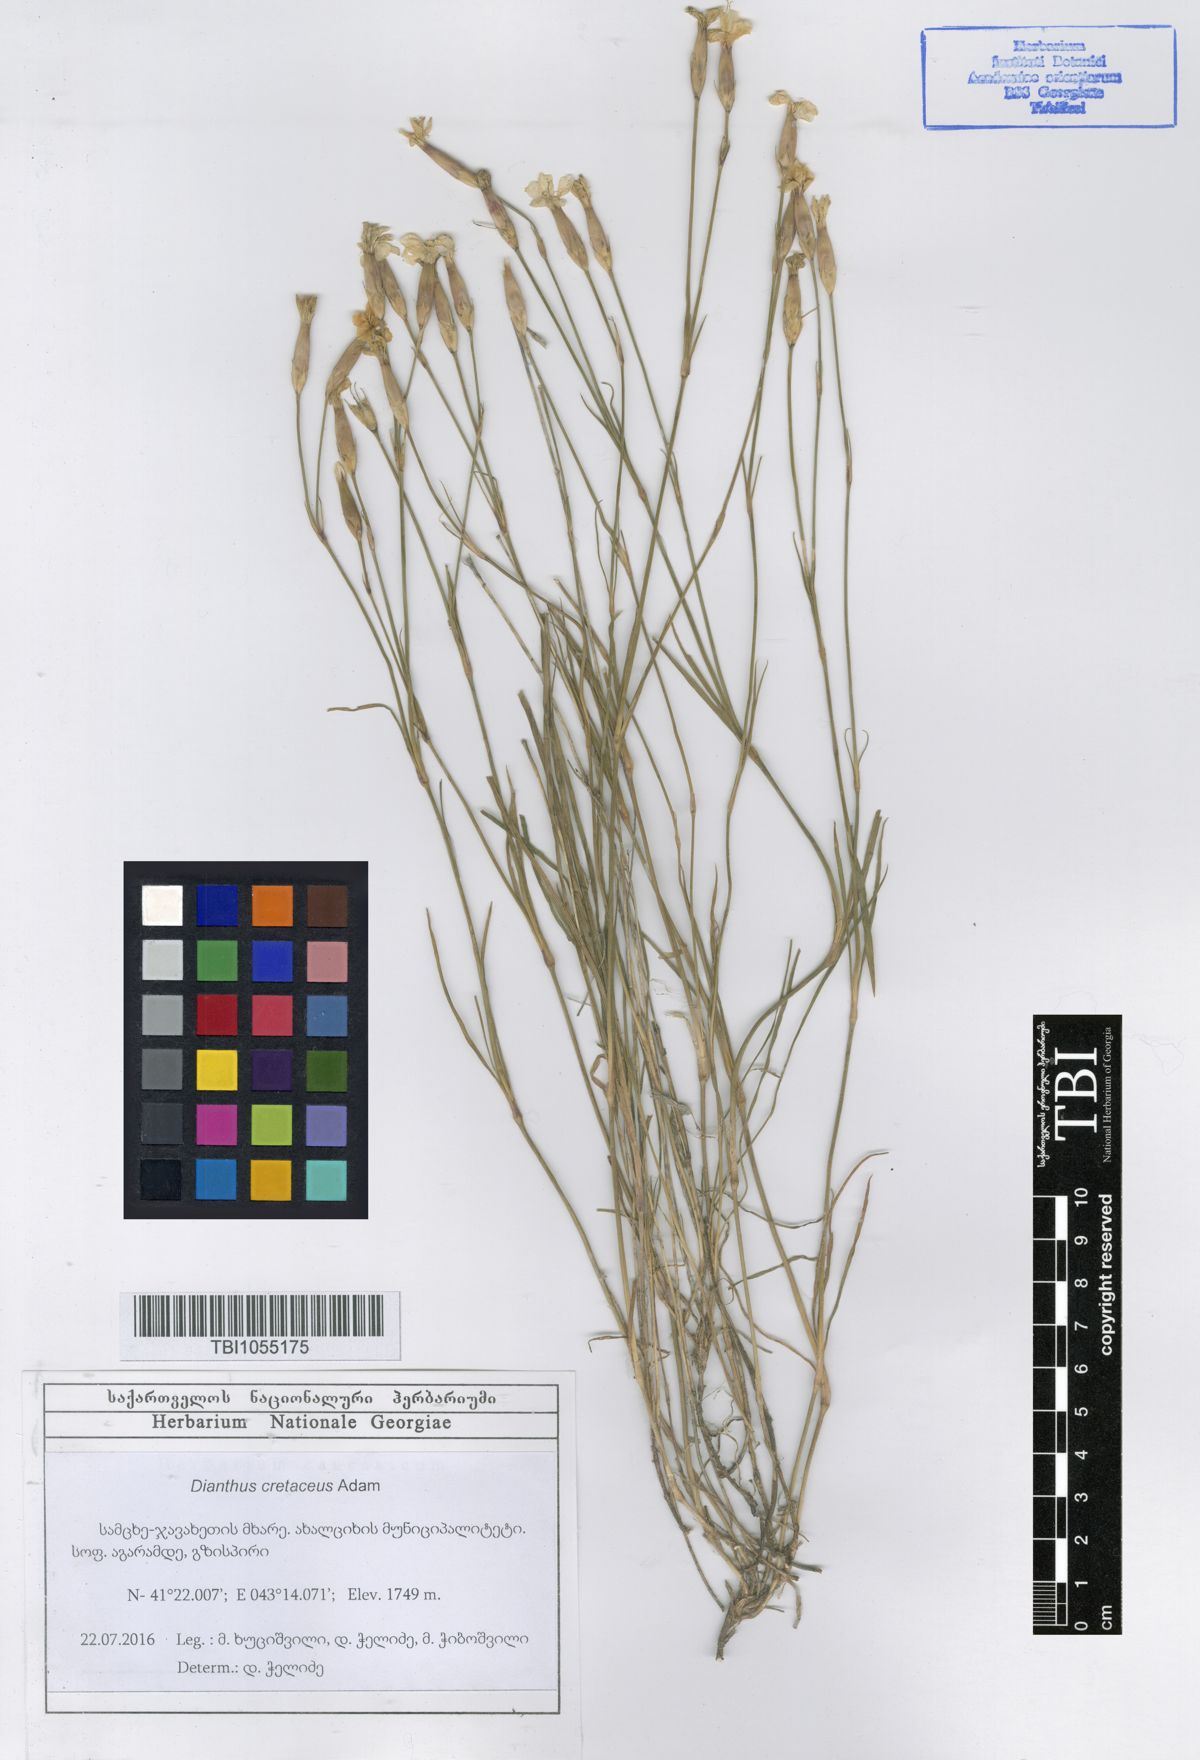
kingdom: Plantae
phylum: Tracheophyta
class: Magnoliopsida
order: Caryophyllales
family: Caryophyllaceae
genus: Dianthus
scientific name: Dianthus cretaceus
